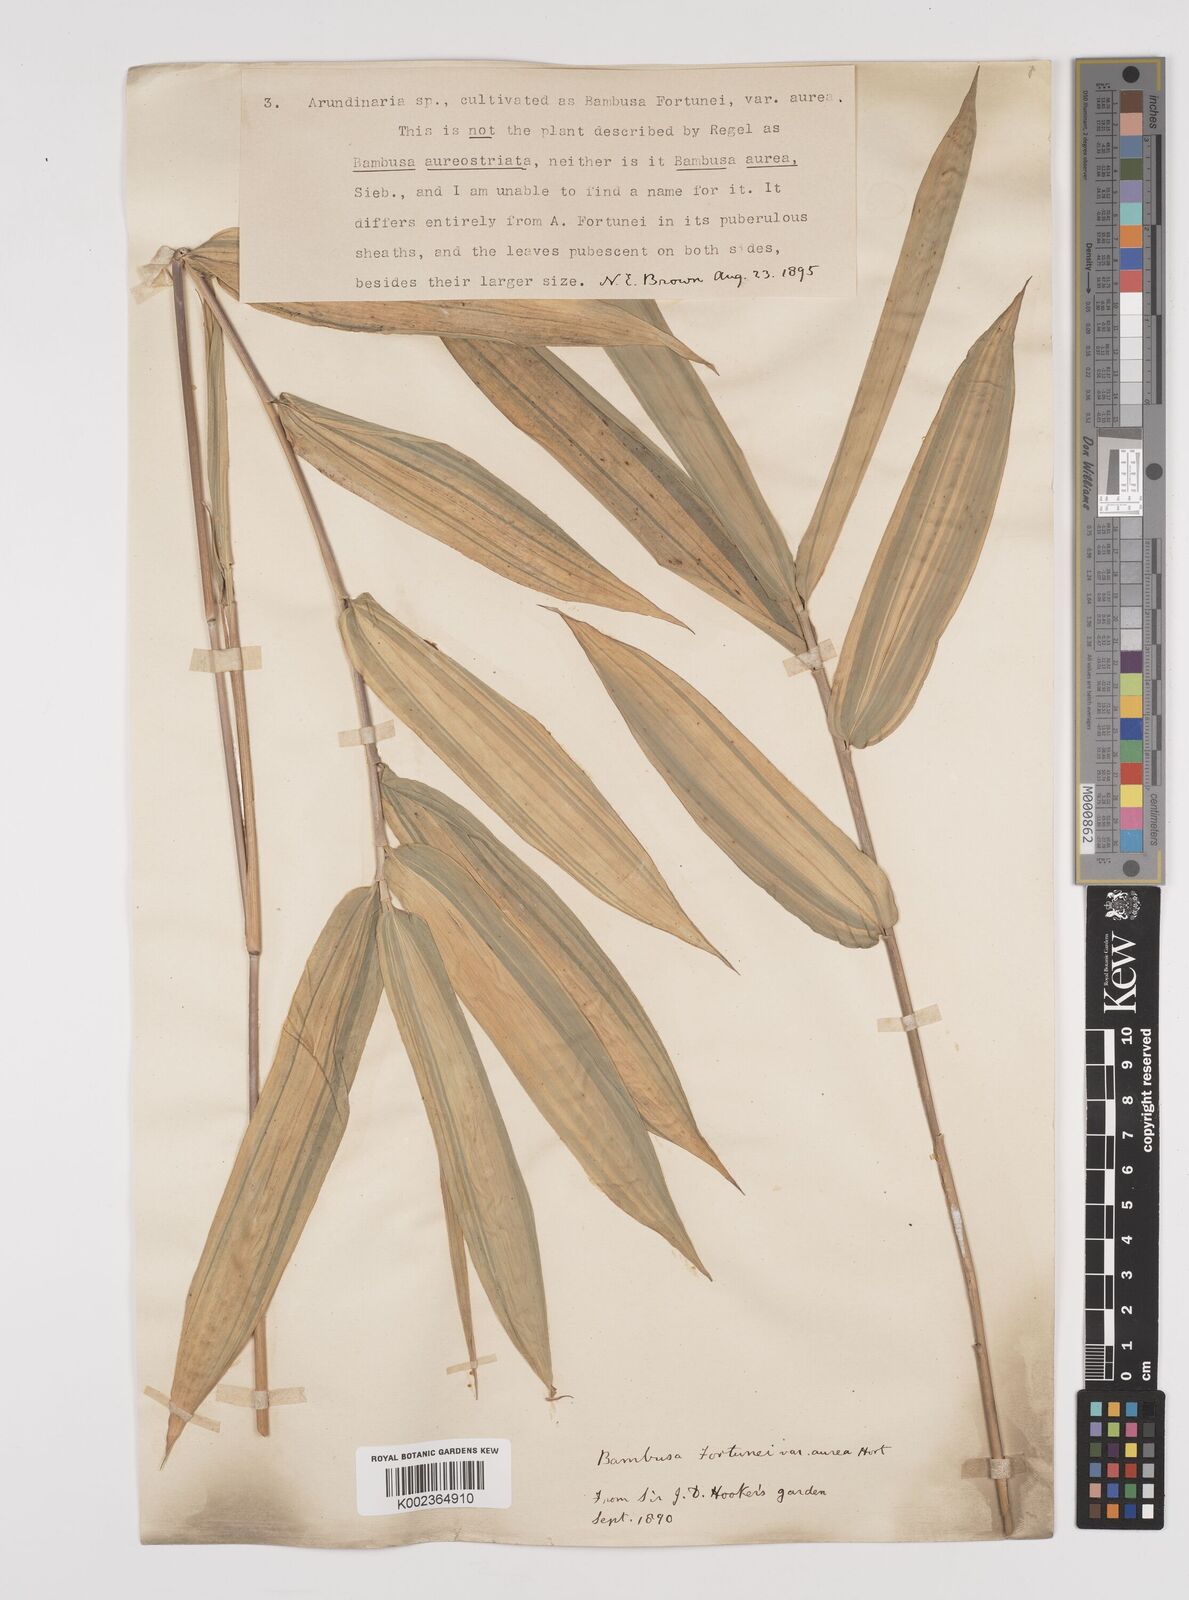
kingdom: Plantae
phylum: Tracheophyta
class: Liliopsida
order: Poales
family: Poaceae
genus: Pleioblastus
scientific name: Pleioblastus viridistriatus
